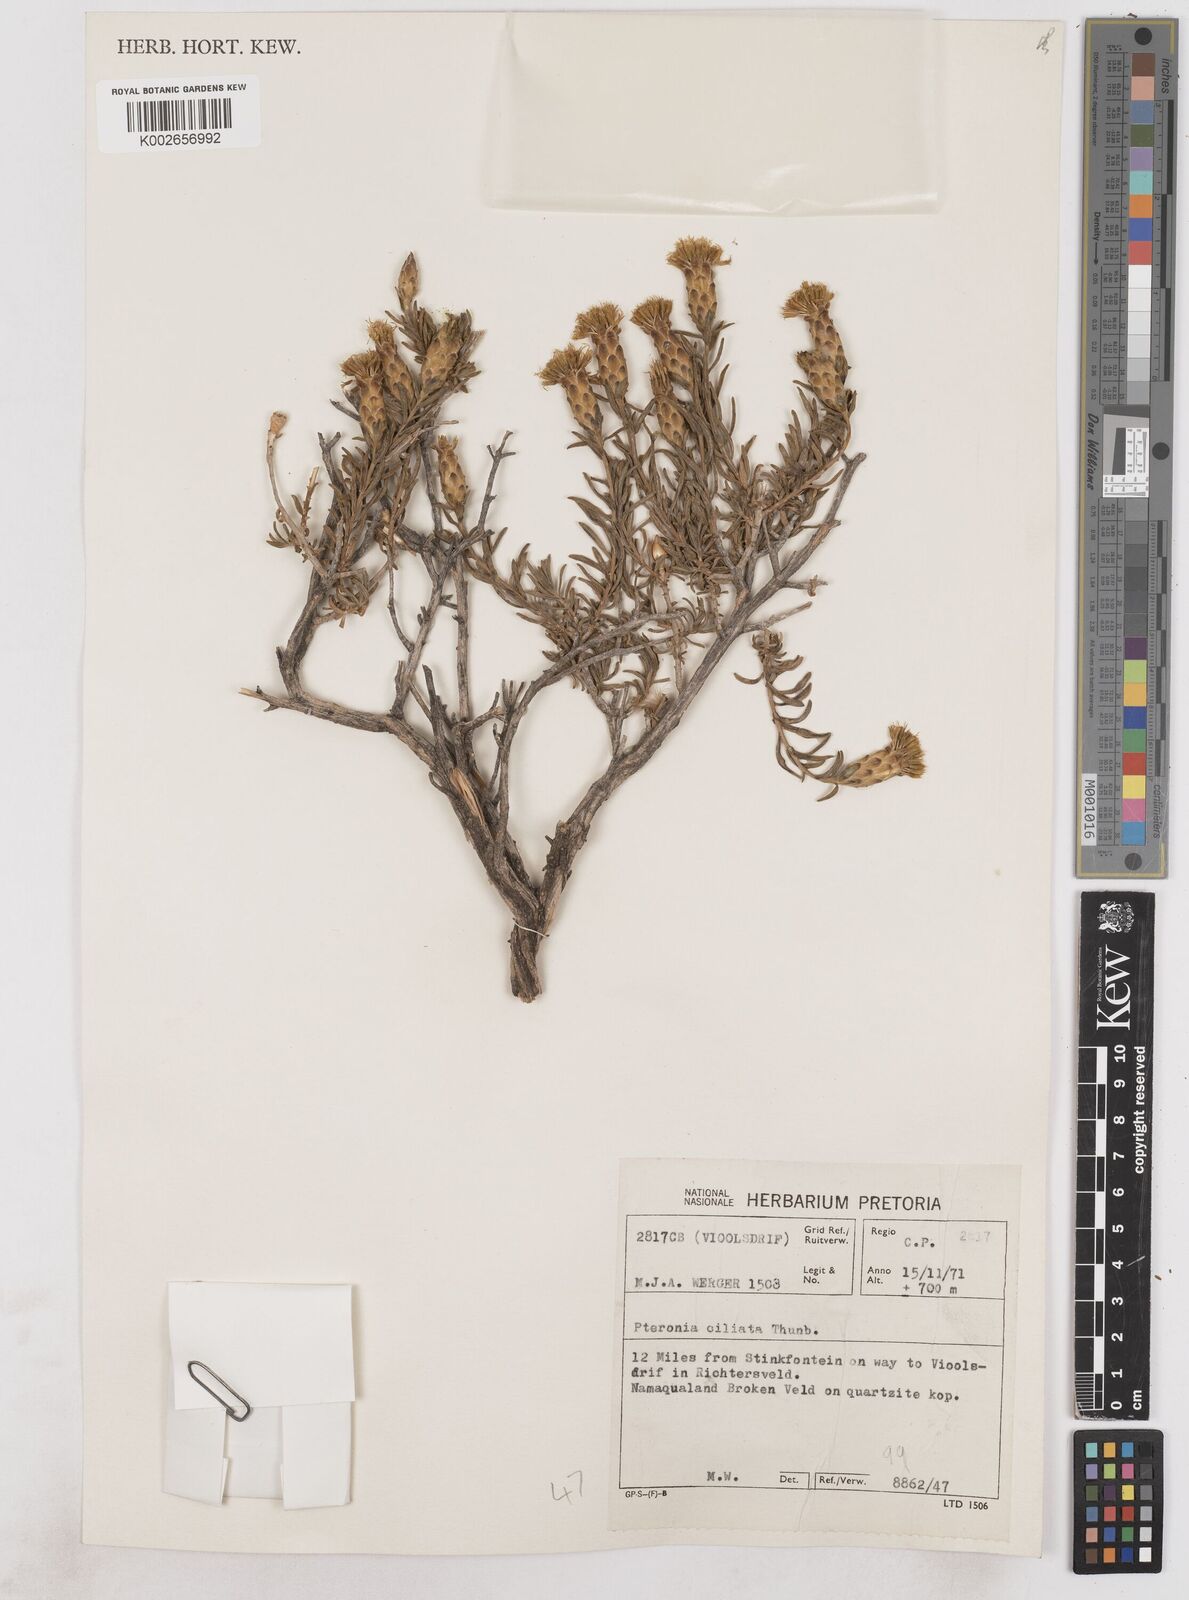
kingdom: Plantae
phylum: Tracheophyta
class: Magnoliopsida
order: Asterales
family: Asteraceae
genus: Pteronia
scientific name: Pteronia ciliata
